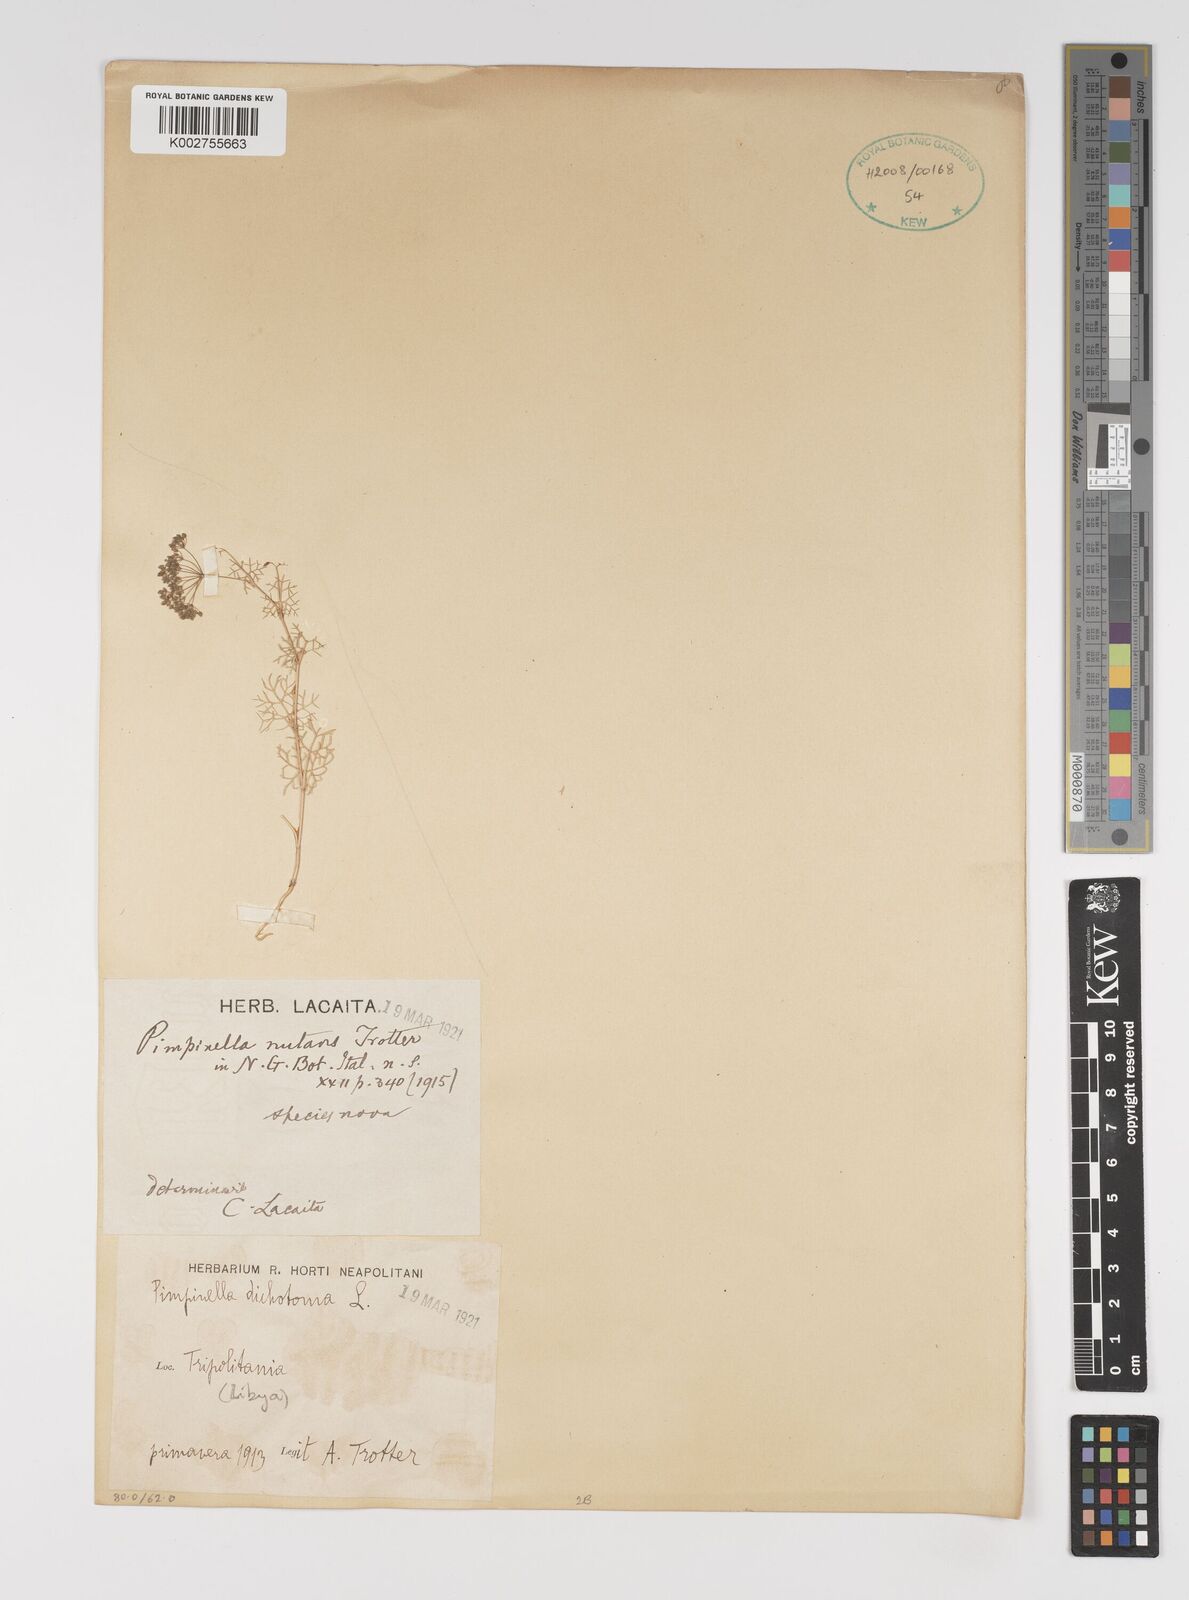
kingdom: Plantae
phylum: Tracheophyta
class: Magnoliopsida
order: Apiales
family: Apiaceae
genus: Stoibrax
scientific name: Stoibrax dichotomum
